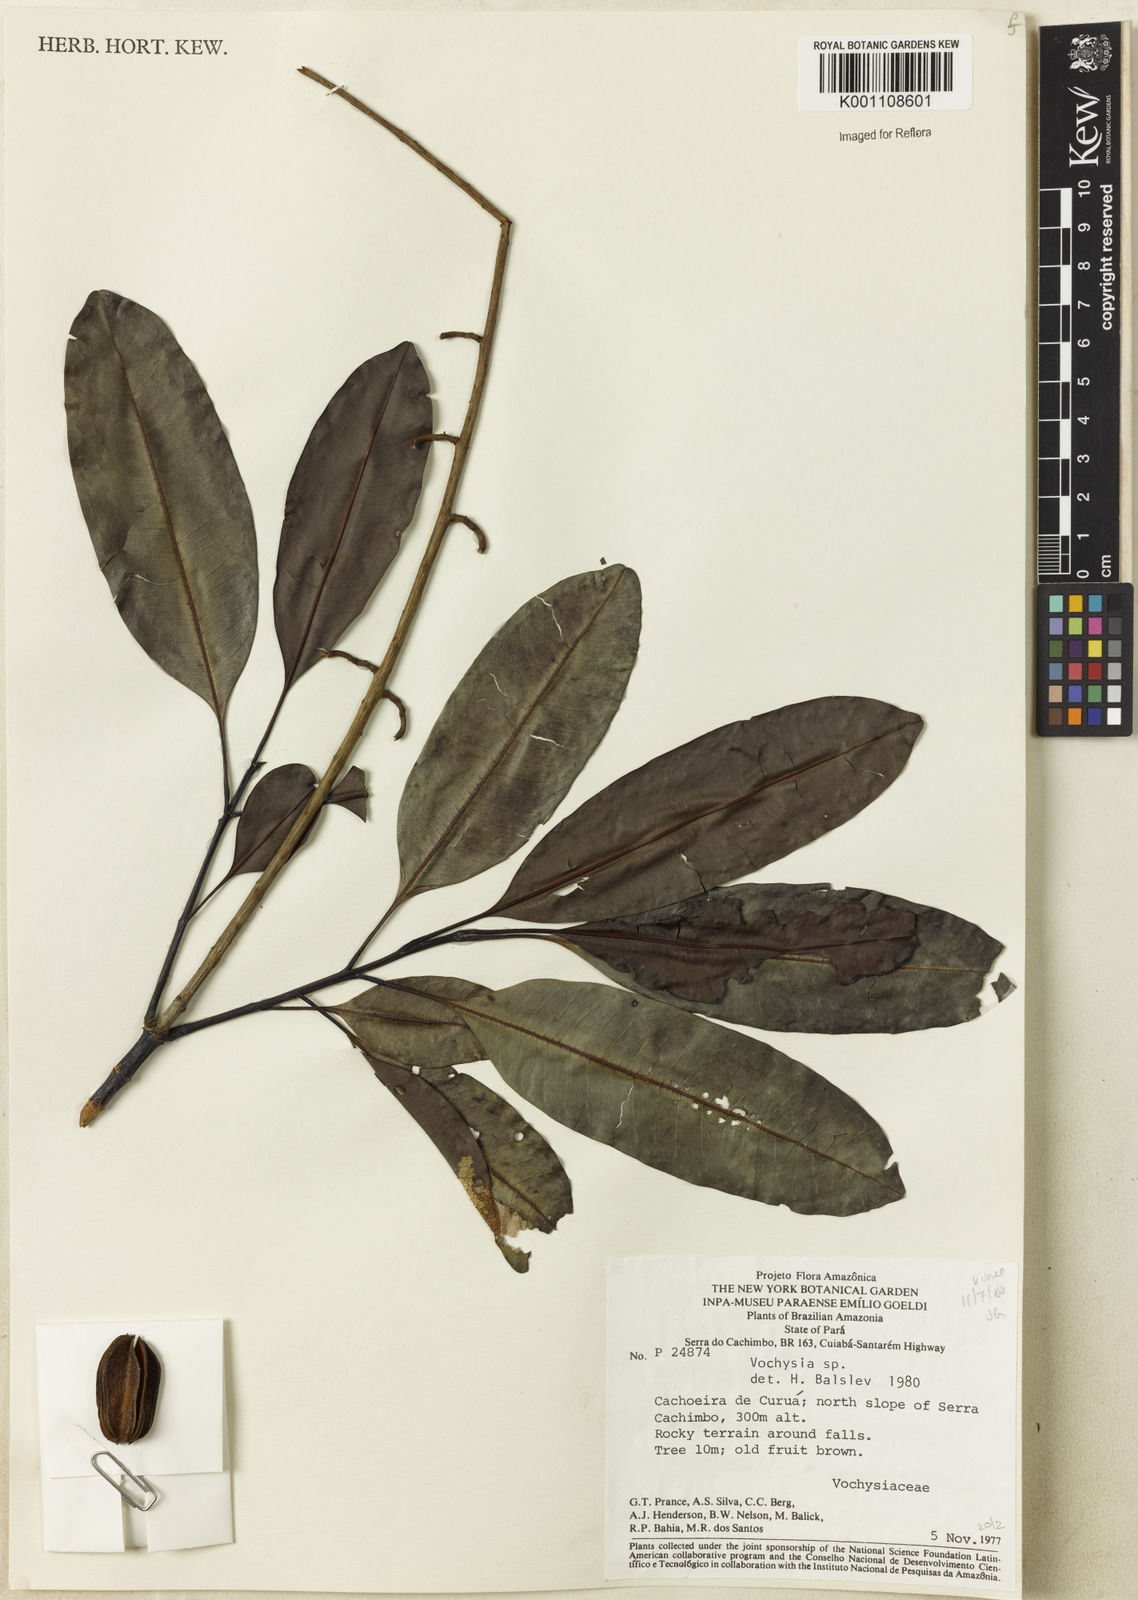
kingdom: Plantae
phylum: Tracheophyta
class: Magnoliopsida
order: Myrtales
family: Vochysiaceae
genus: Vochysia
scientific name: Vochysia
